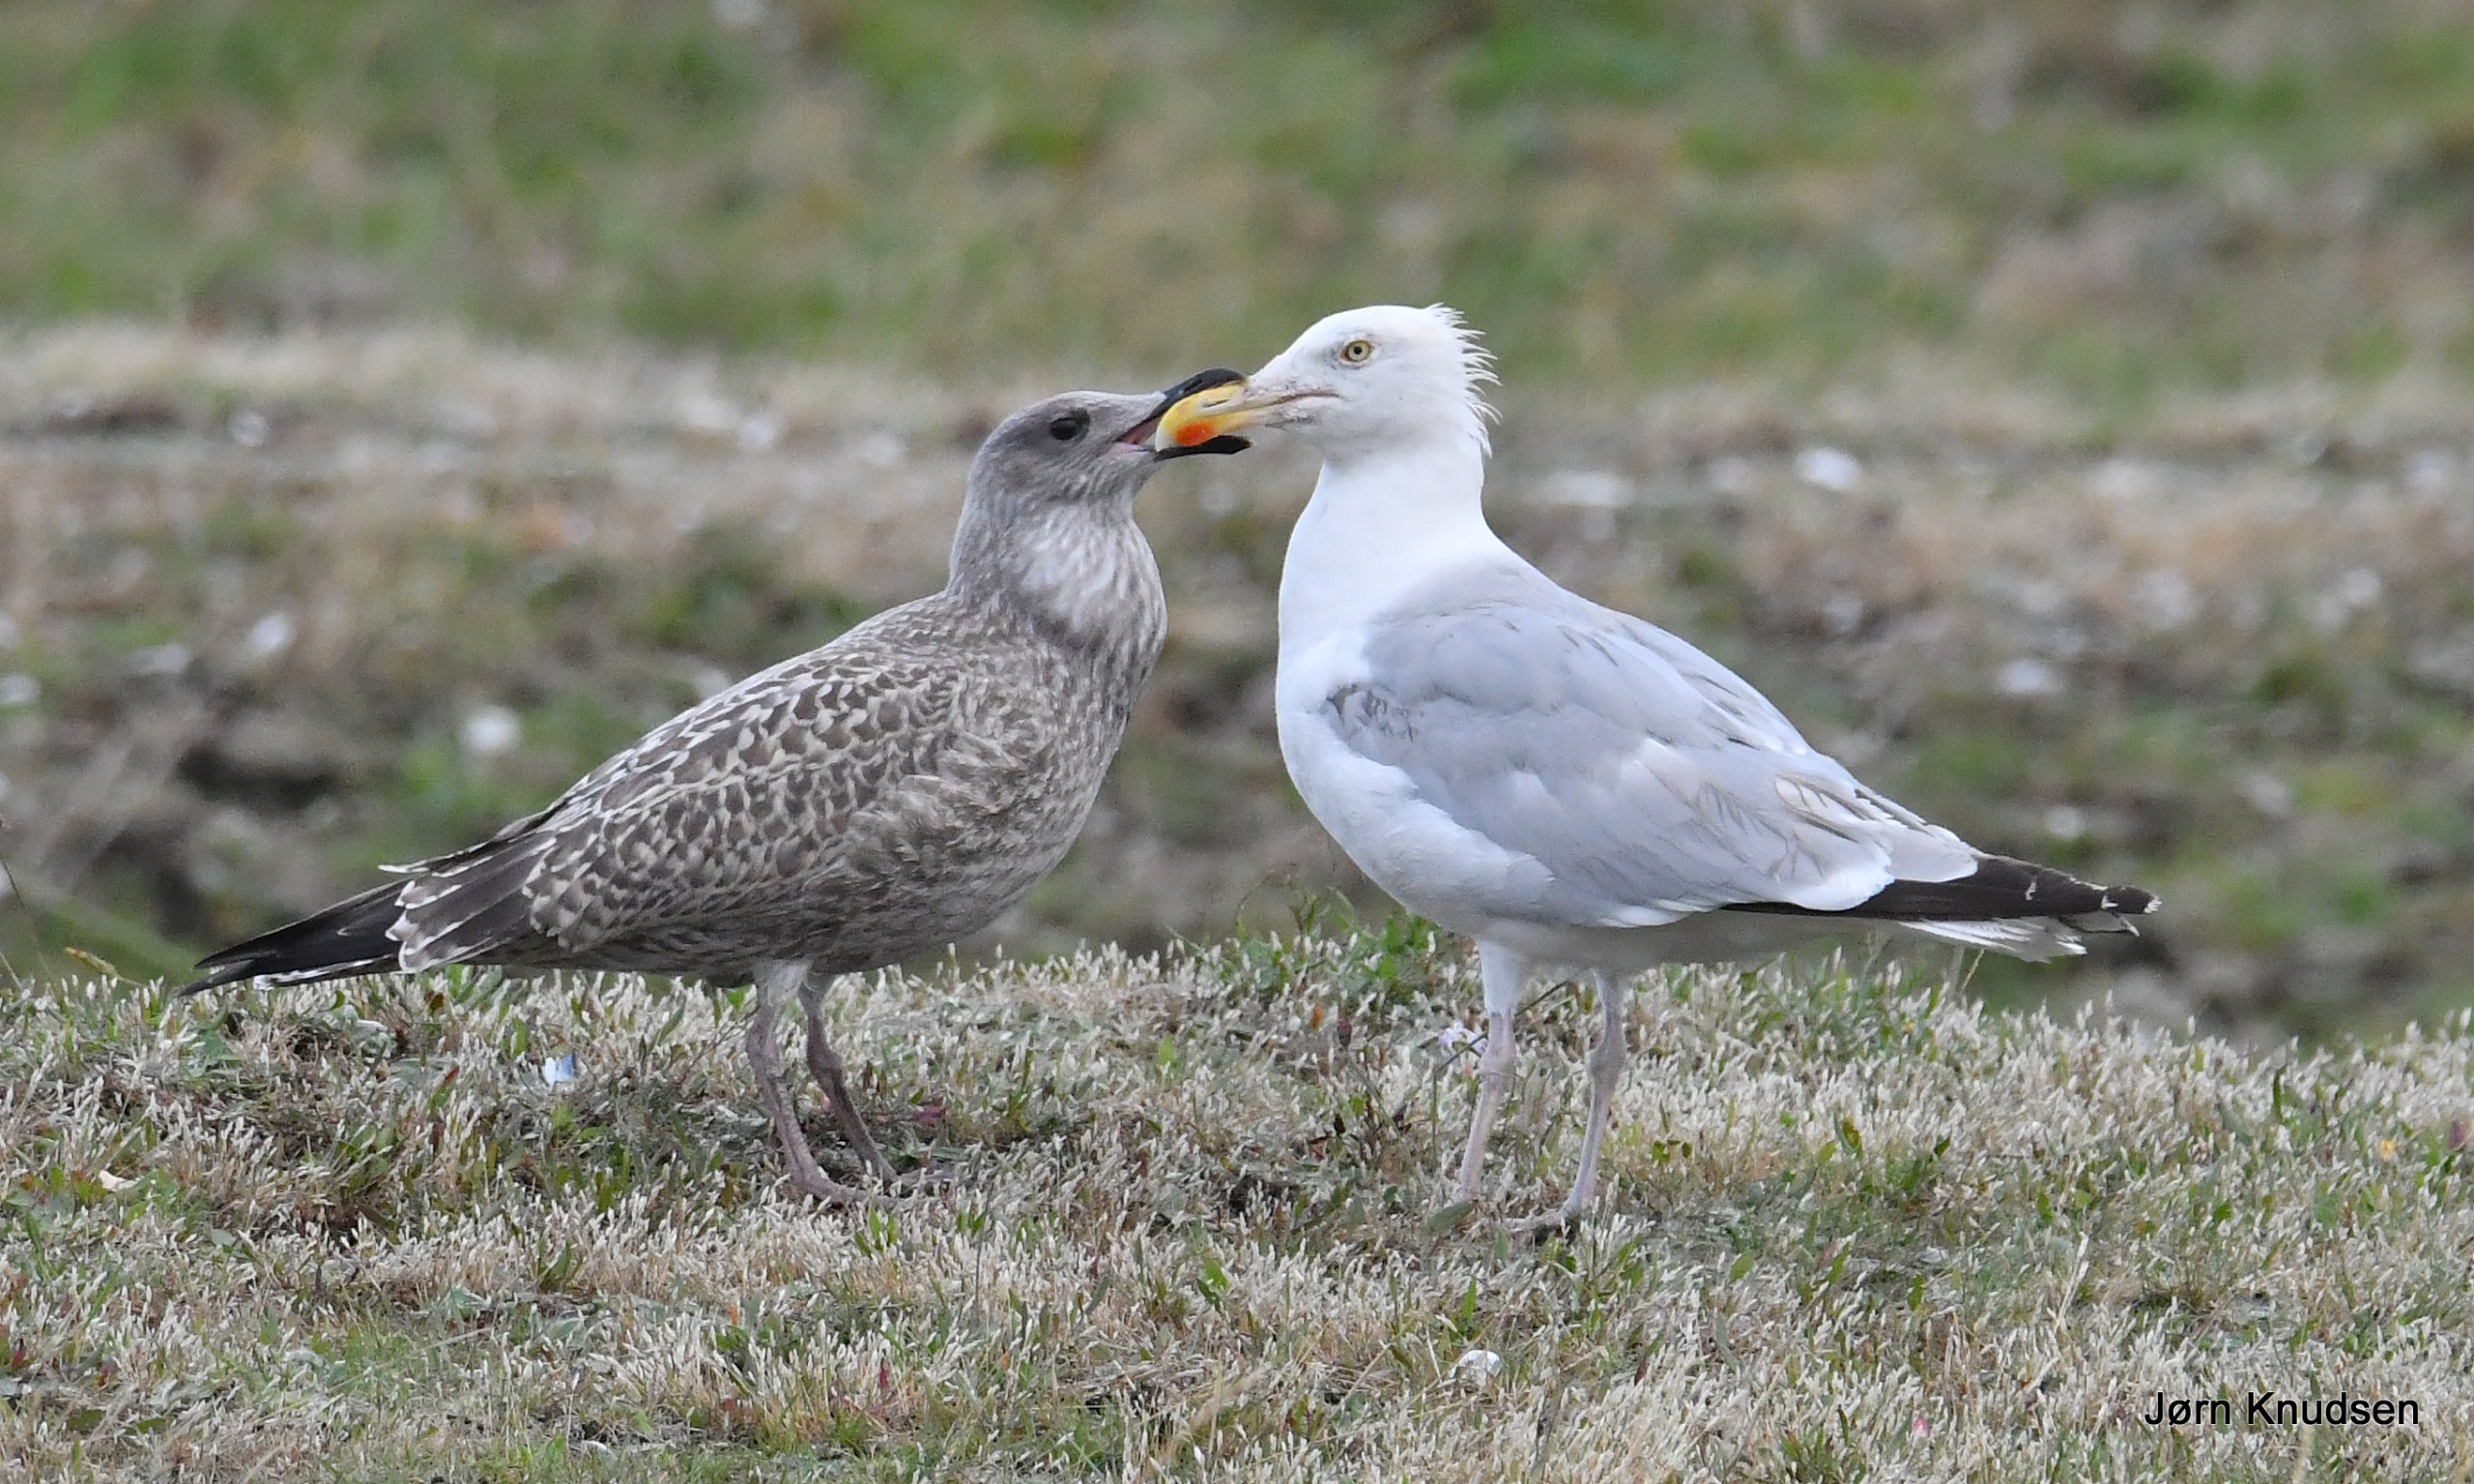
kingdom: Animalia
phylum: Chordata
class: Aves
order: Charadriiformes
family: Laridae
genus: Larus
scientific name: Larus argentatus
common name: Sølvmåge
